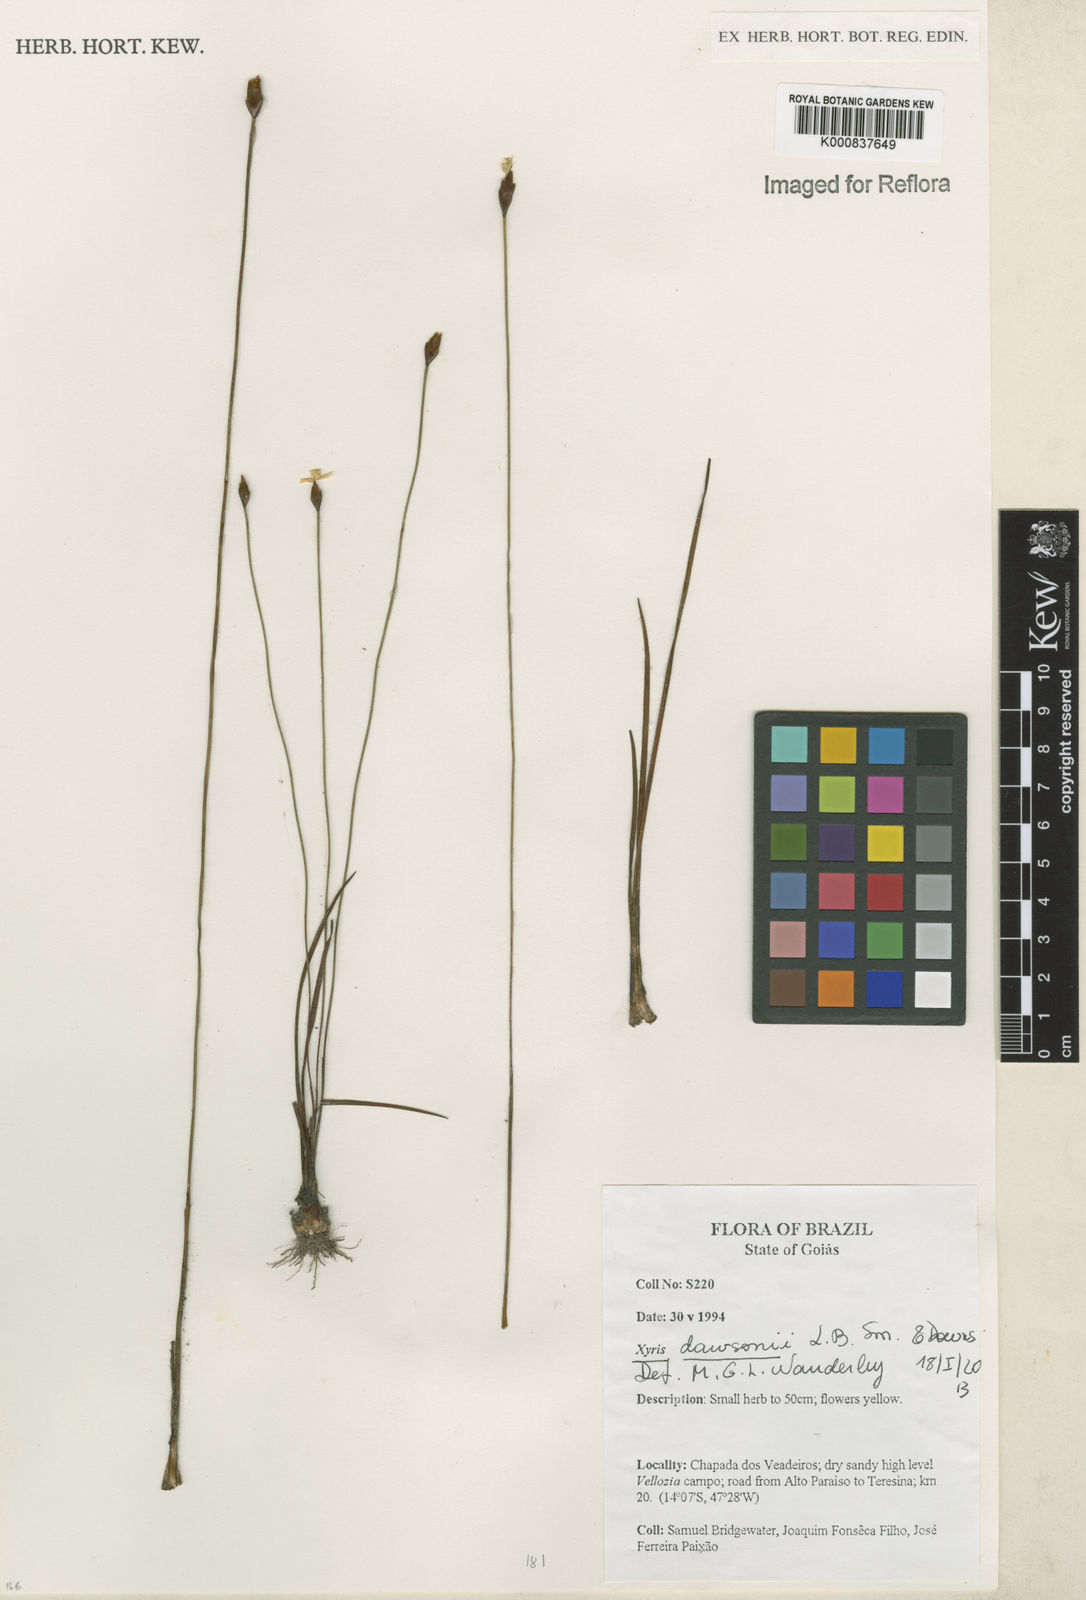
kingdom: Plantae
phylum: Tracheophyta
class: Liliopsida
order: Poales
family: Xyridaceae
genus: Xyris
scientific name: Xyris dawsonii
